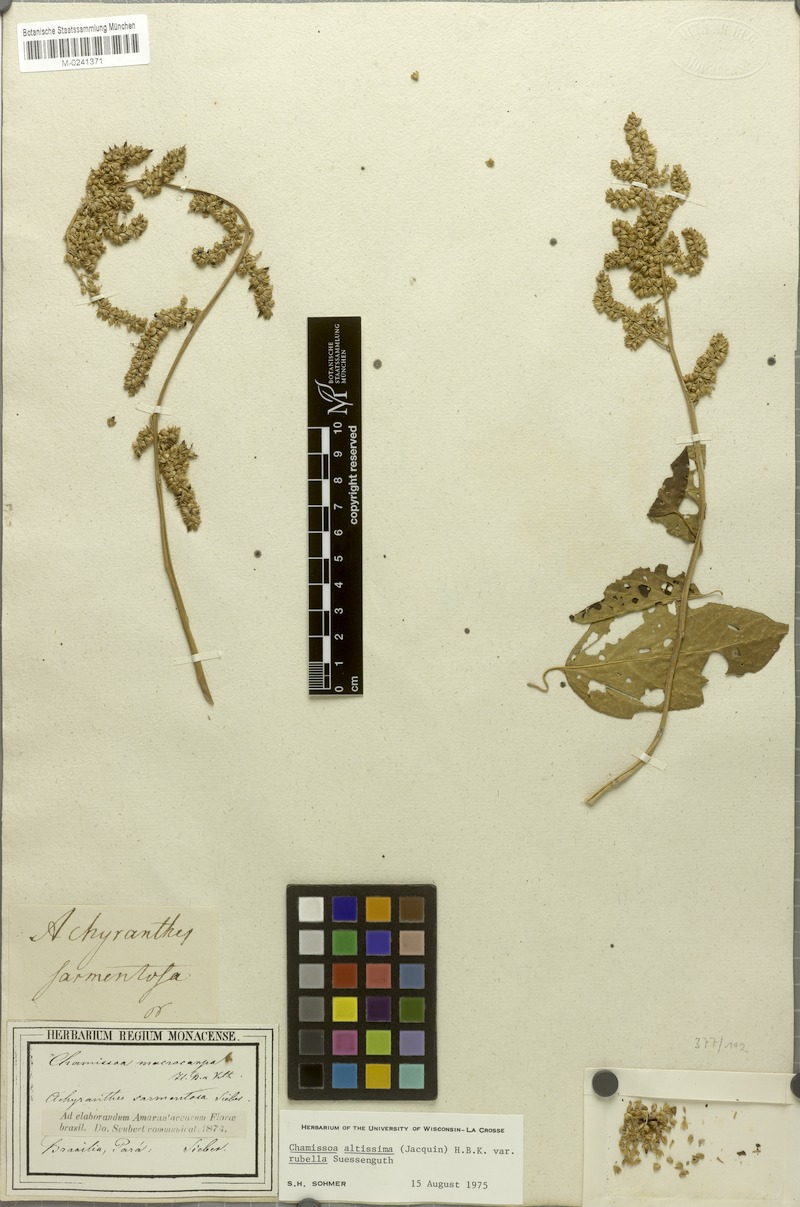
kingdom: Plantae
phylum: Tracheophyta
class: Magnoliopsida
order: Caryophyllales
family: Amaranthaceae
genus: Chamissoa
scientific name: Chamissoa altissima
